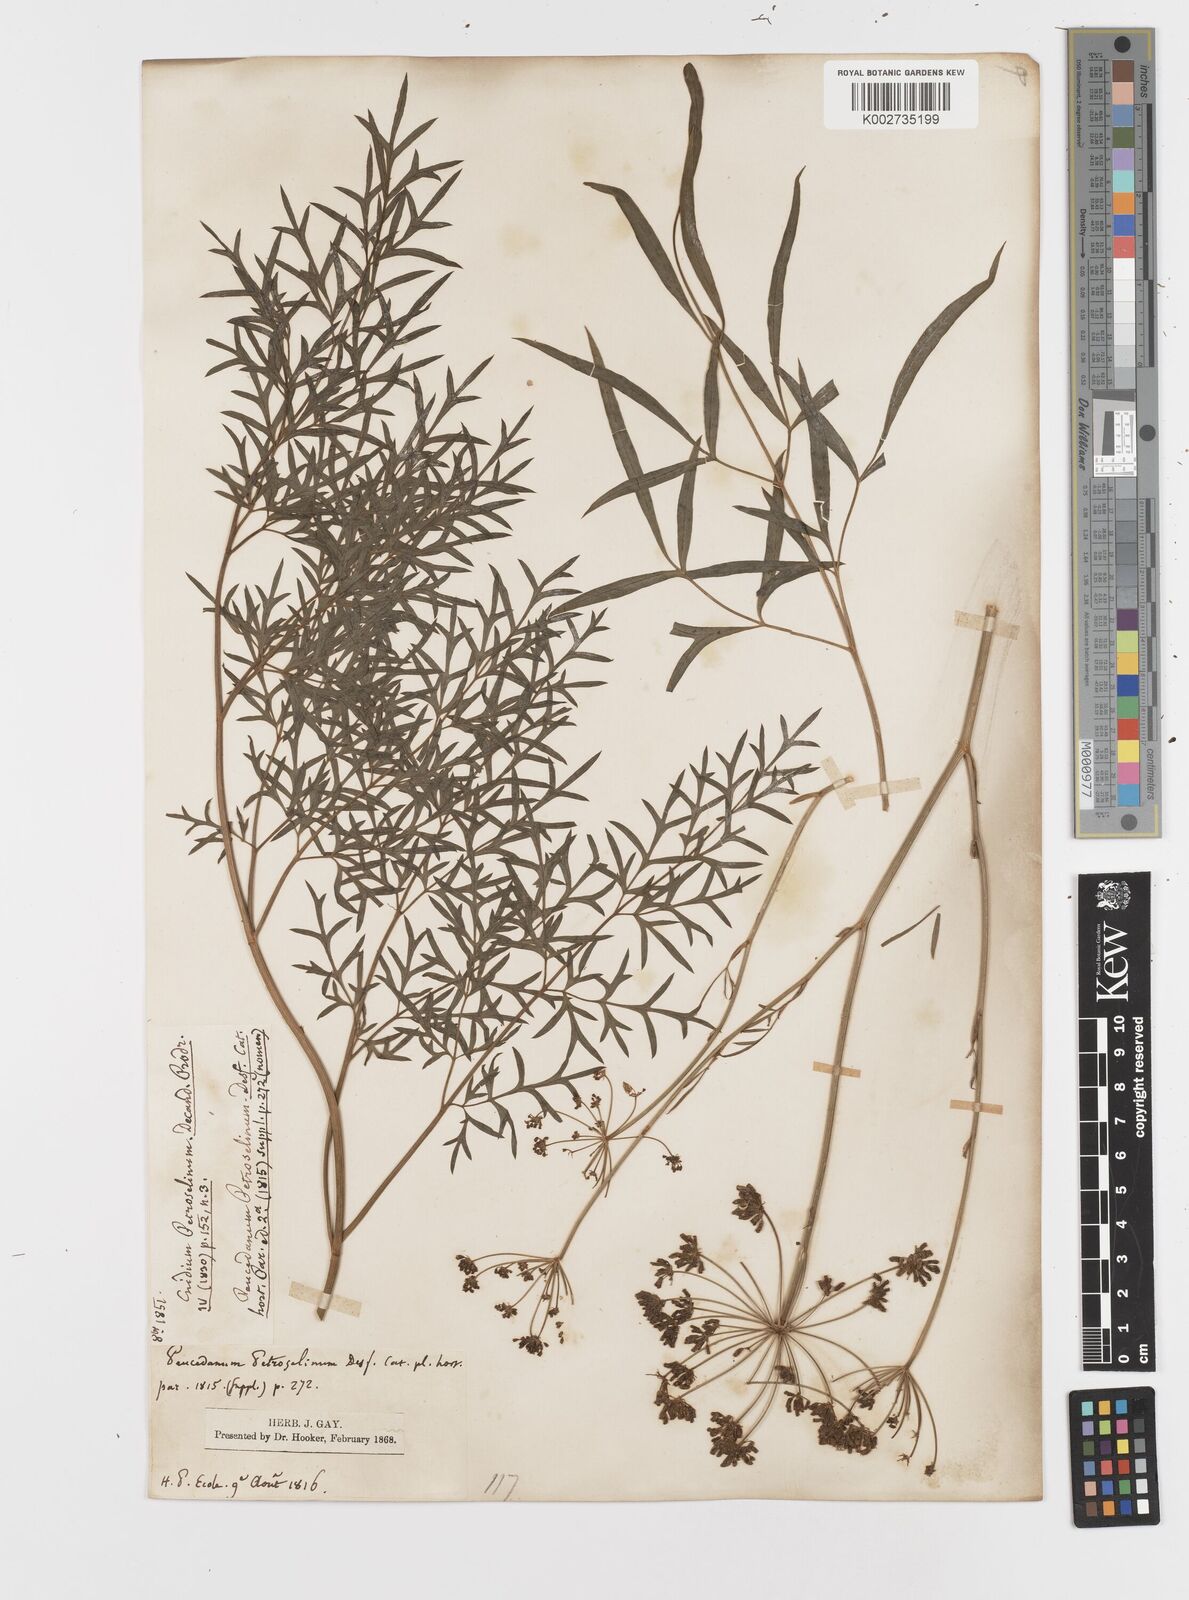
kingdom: Plantae
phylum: Tracheophyta
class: Magnoliopsida
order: Apiales
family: Apiaceae
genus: Petroselinum
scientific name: Petroselinum crispum
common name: Parsley
